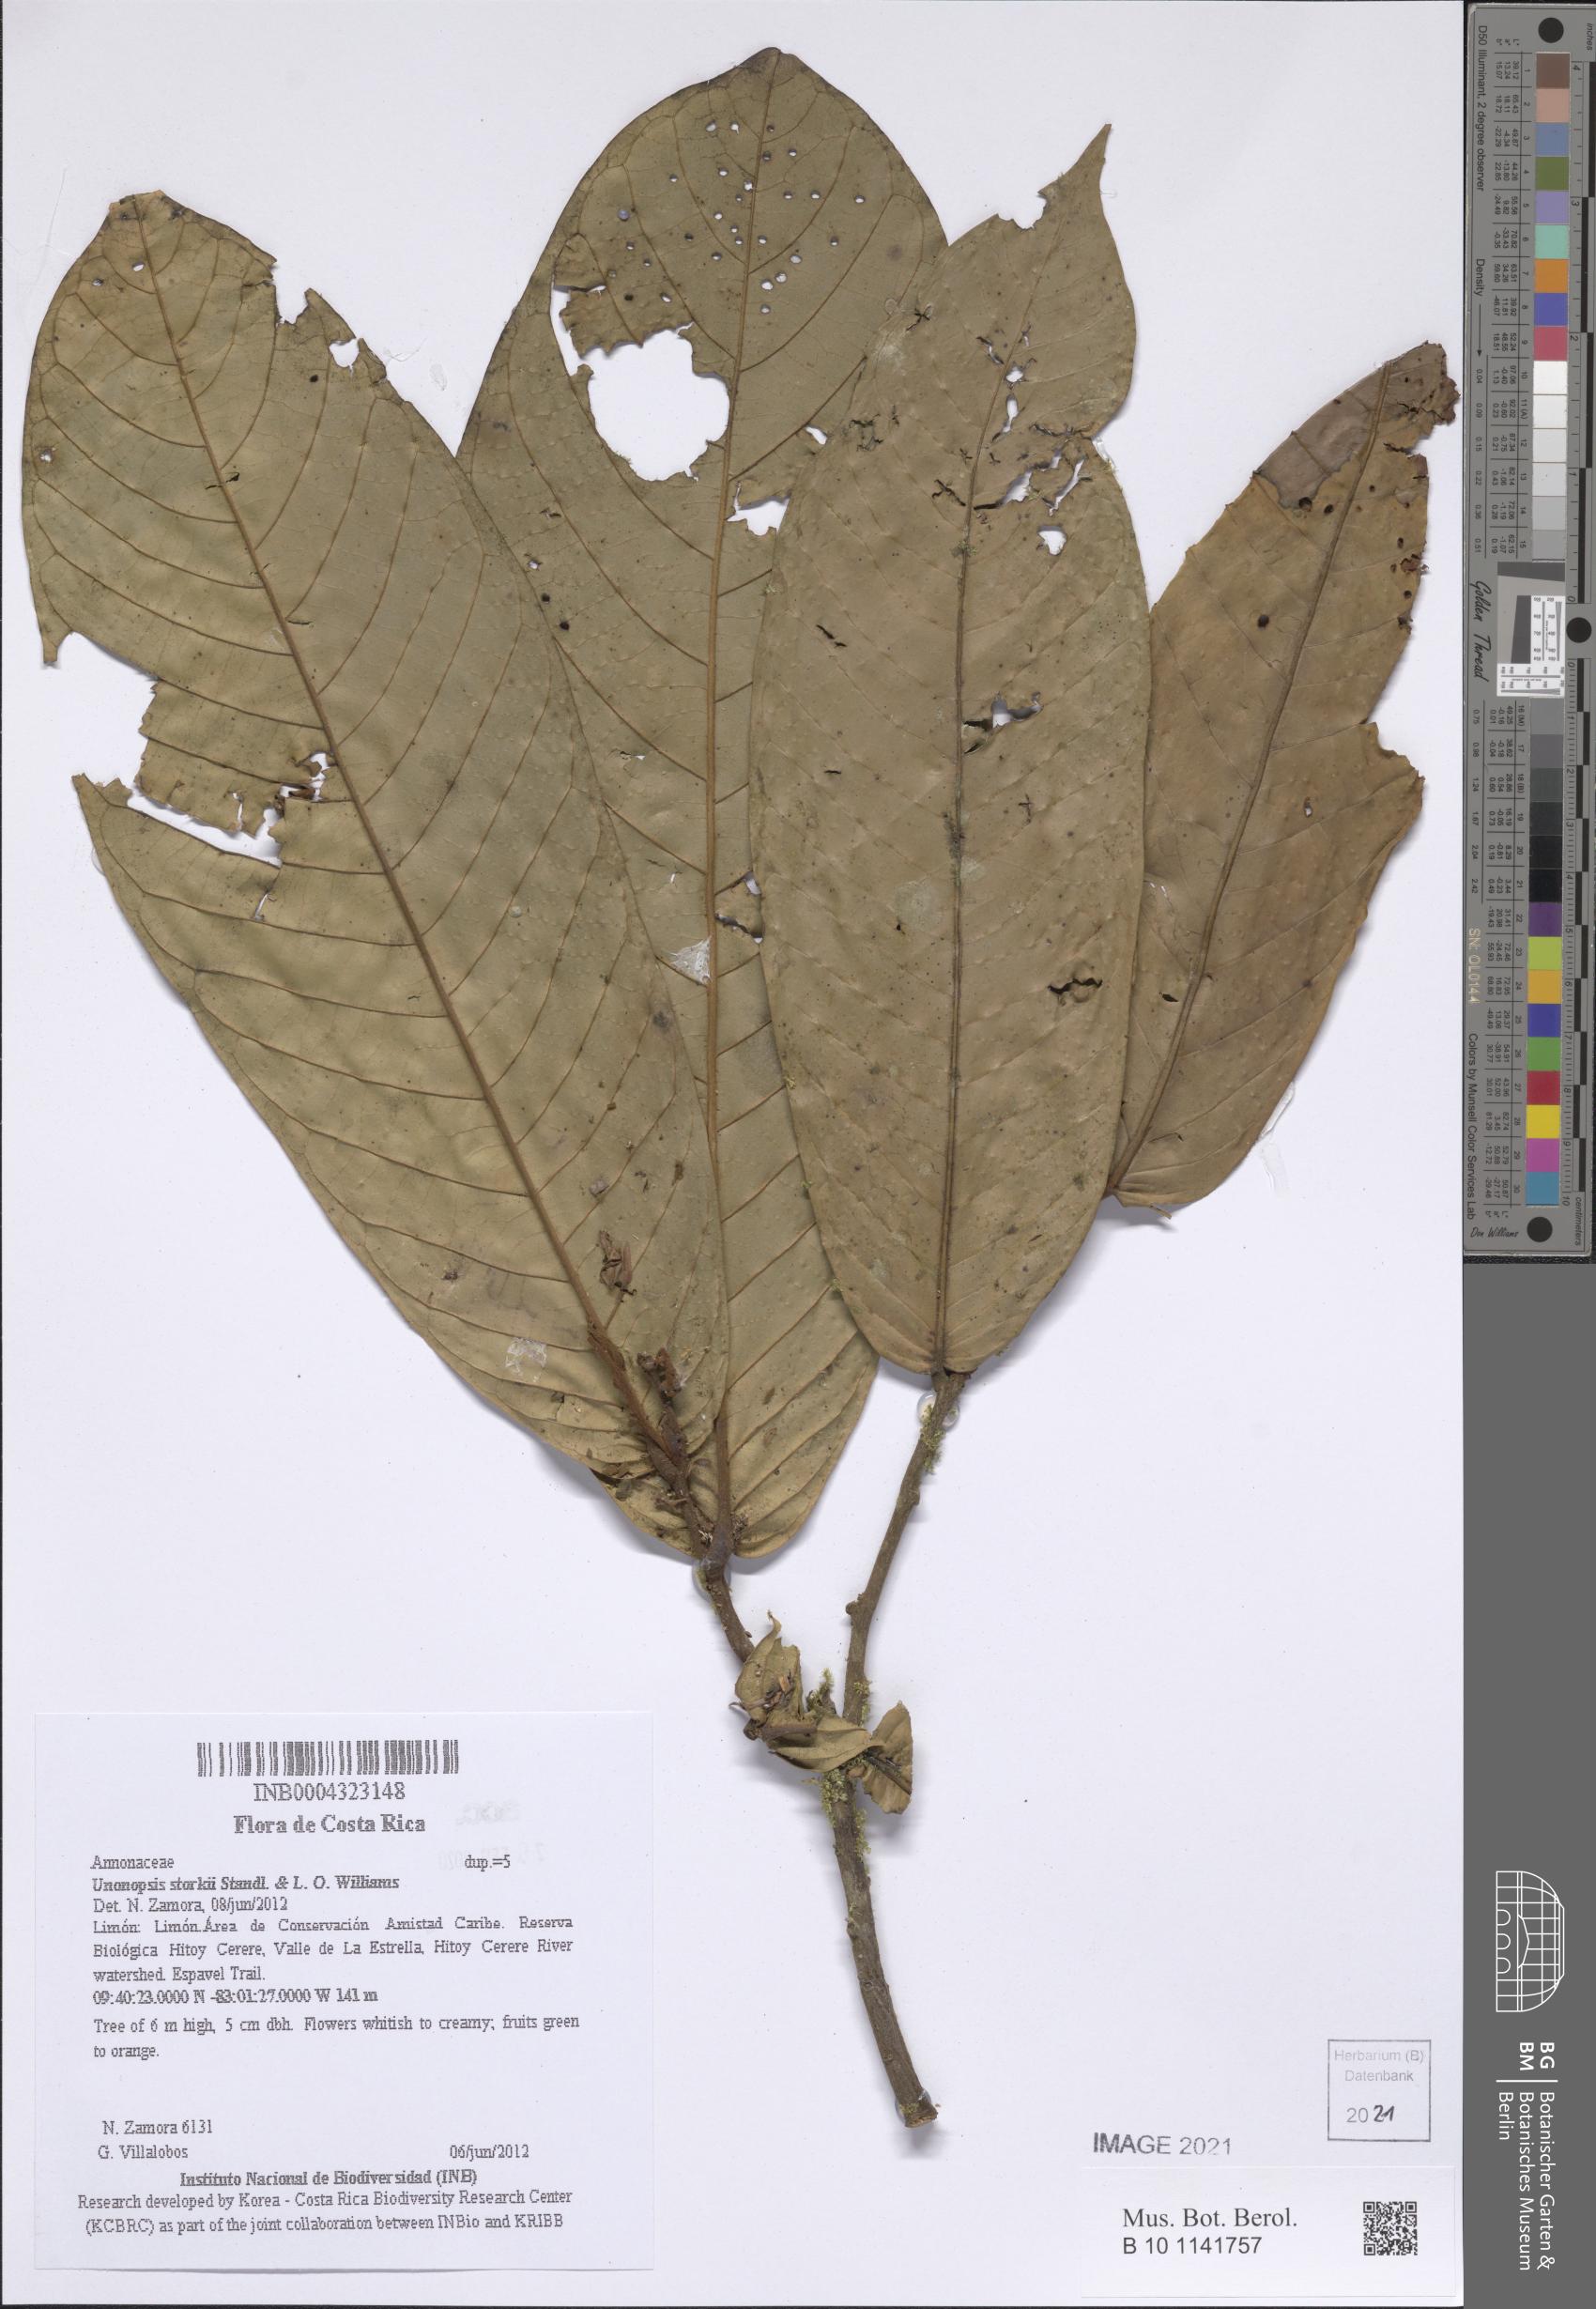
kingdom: Plantae
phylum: Tracheophyta
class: Magnoliopsida
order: Magnoliales
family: Annonaceae
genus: Unonopsis
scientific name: Unonopsis storkii
